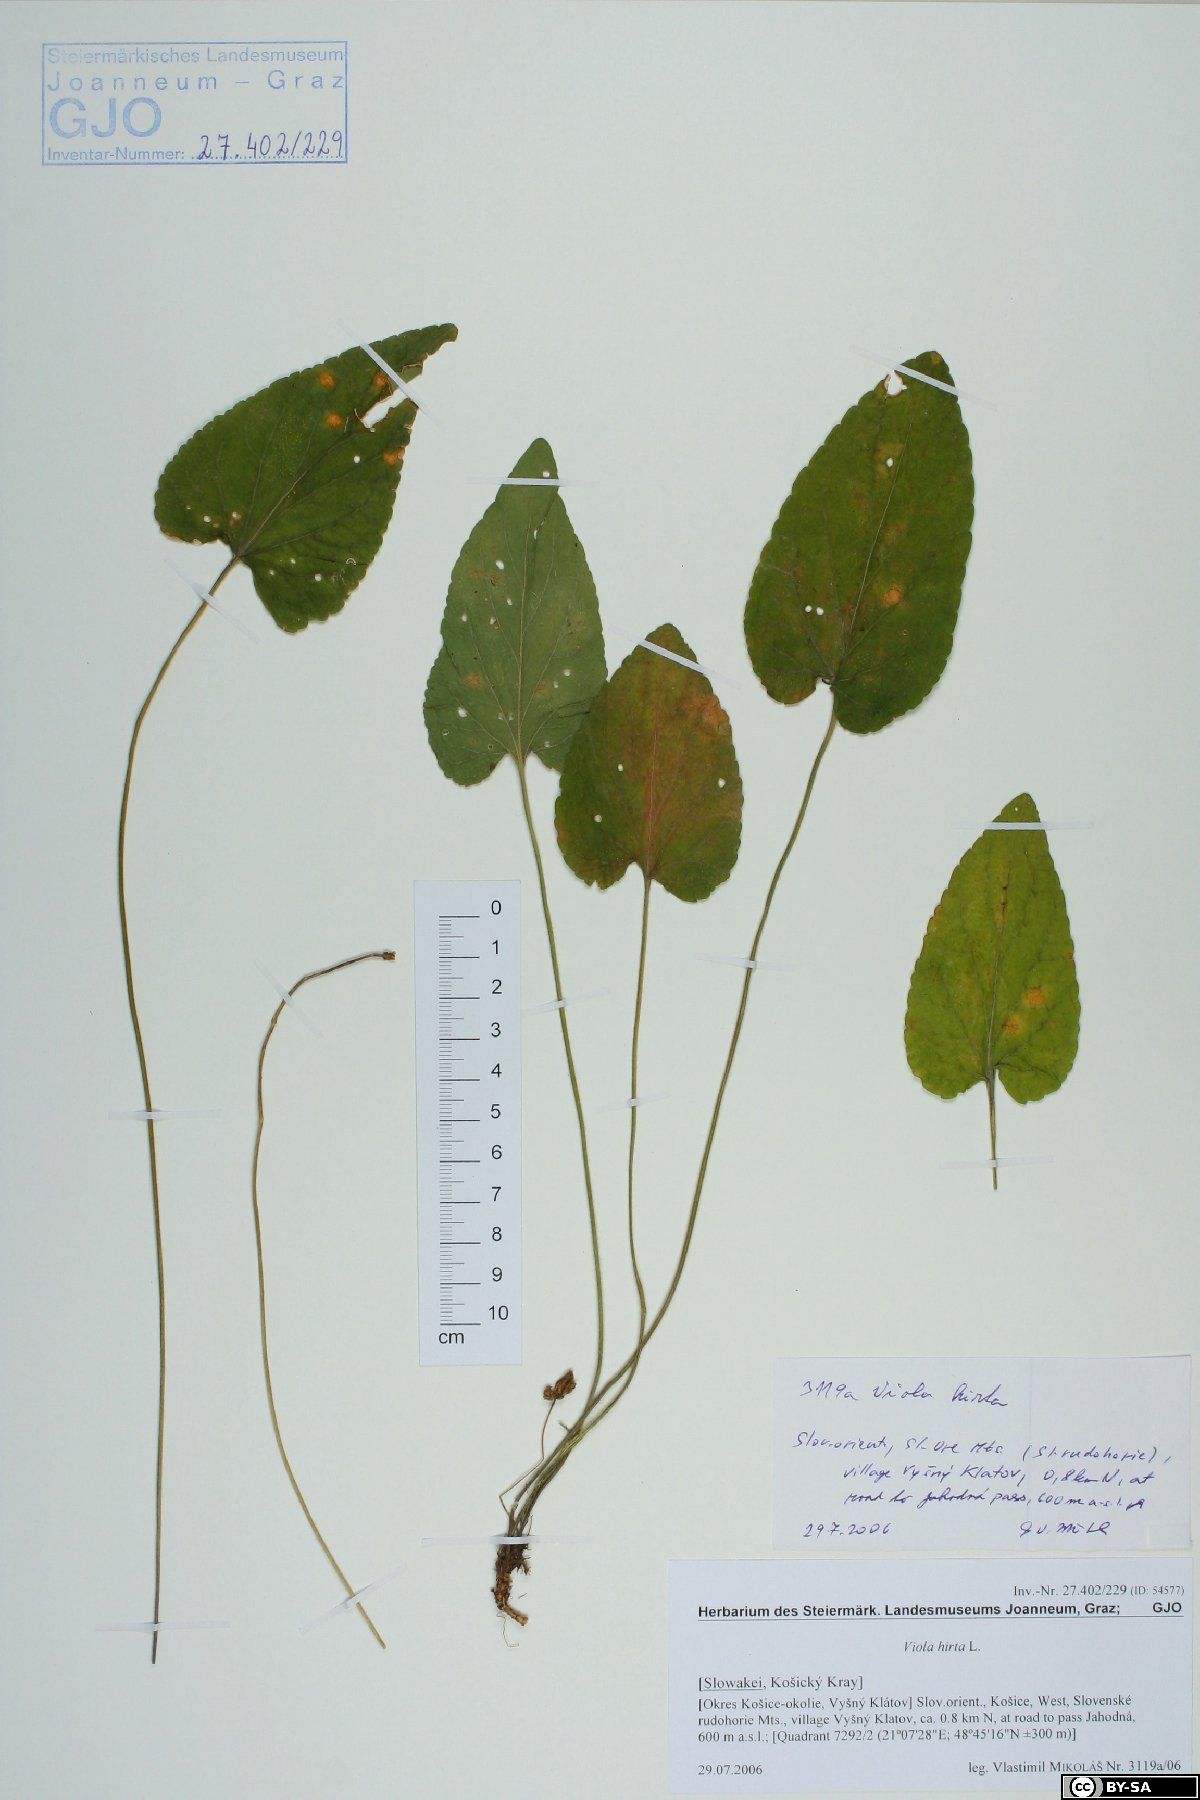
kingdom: Plantae
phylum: Tracheophyta
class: Magnoliopsida
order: Malpighiales
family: Violaceae
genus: Viola
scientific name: Viola hirta
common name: Hairy violet
